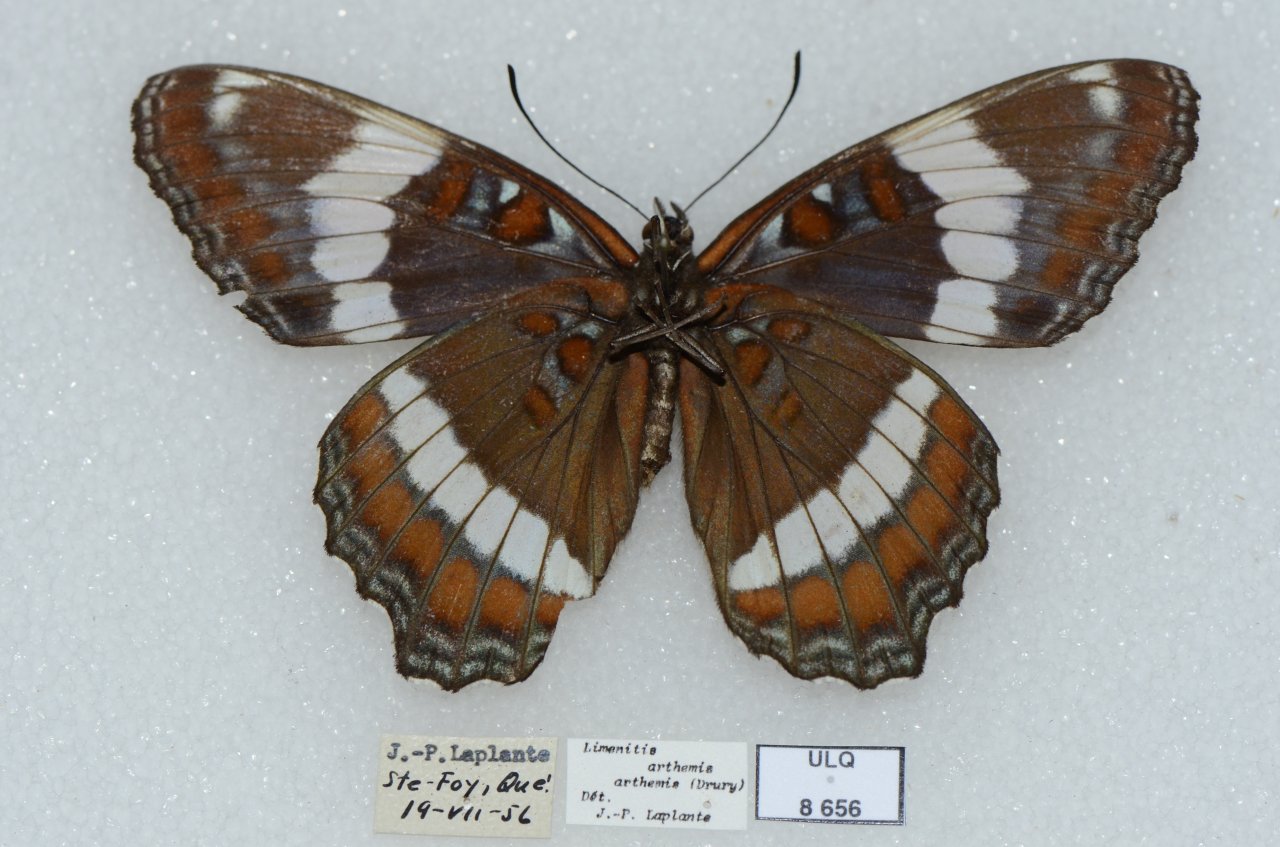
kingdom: Animalia
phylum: Arthropoda
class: Insecta
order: Lepidoptera
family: Nymphalidae
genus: Limenitis
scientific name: Limenitis arthemis
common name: Red-spotted Admiral
